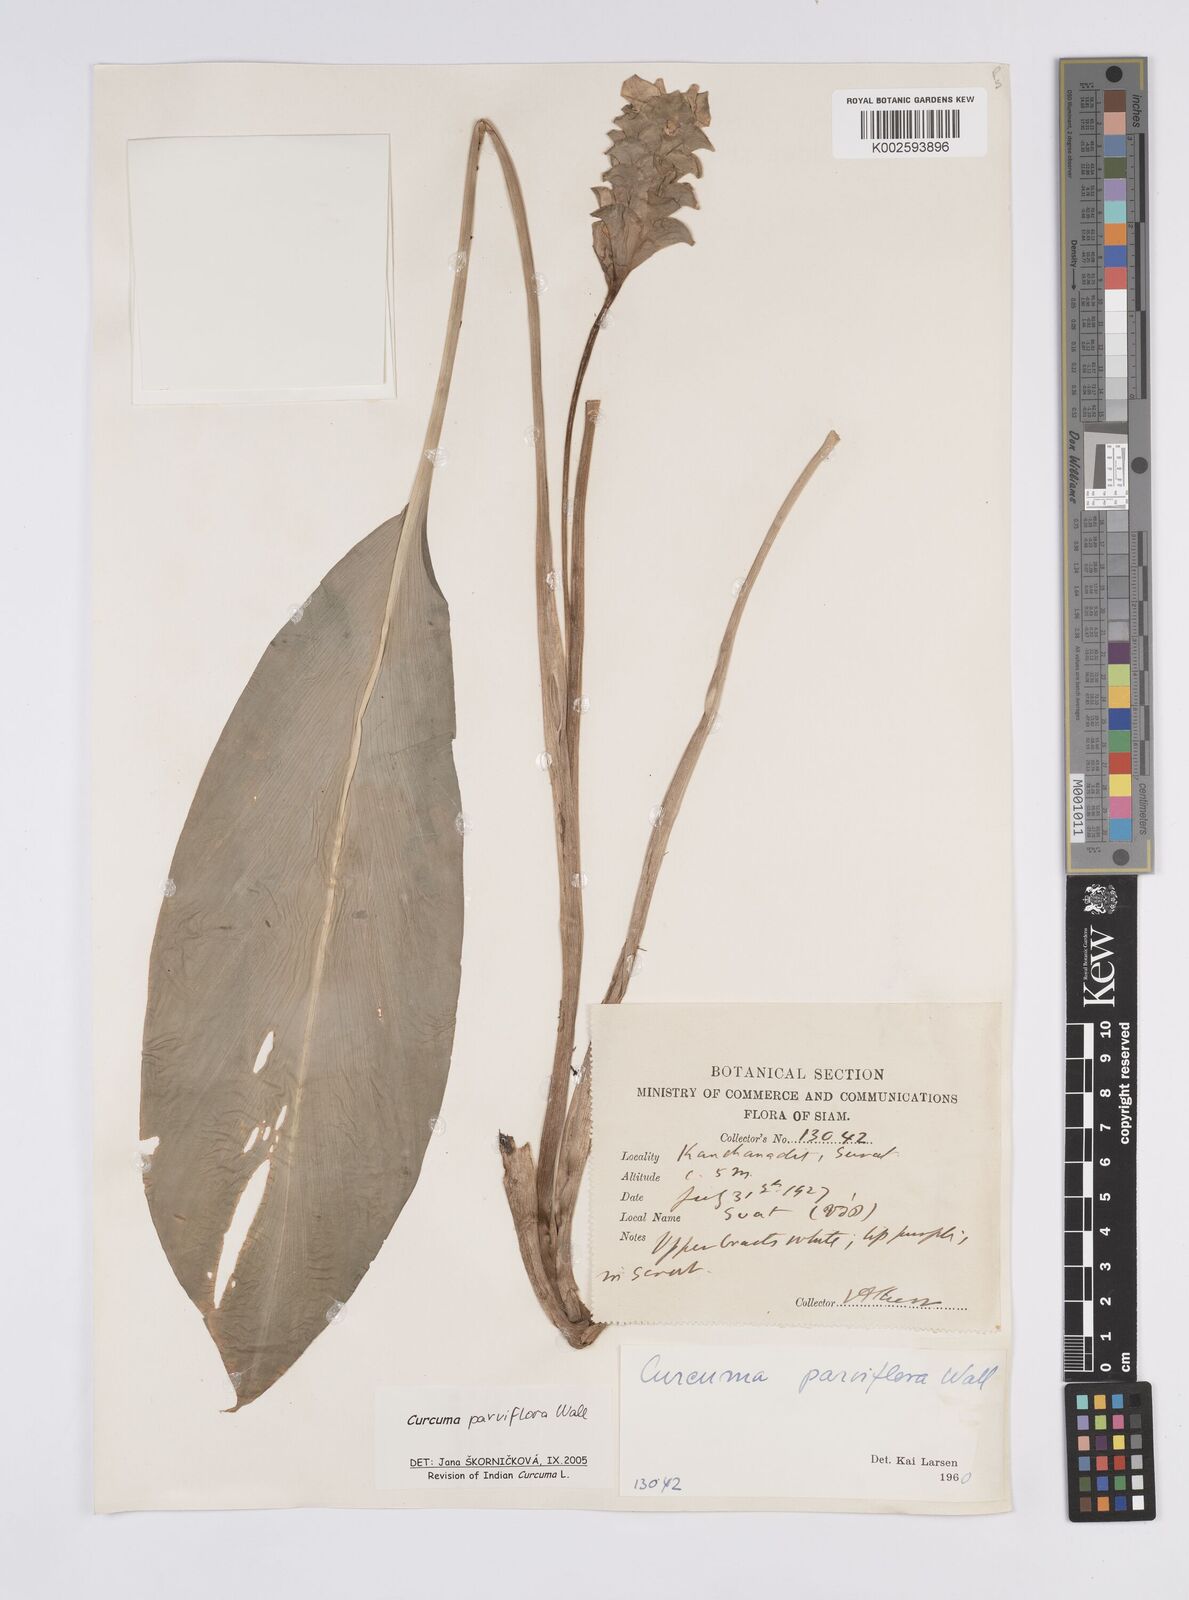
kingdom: Plantae
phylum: Tracheophyta
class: Liliopsida
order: Zingiberales
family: Zingiberaceae
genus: Curcuma
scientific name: Curcuma parviflora
